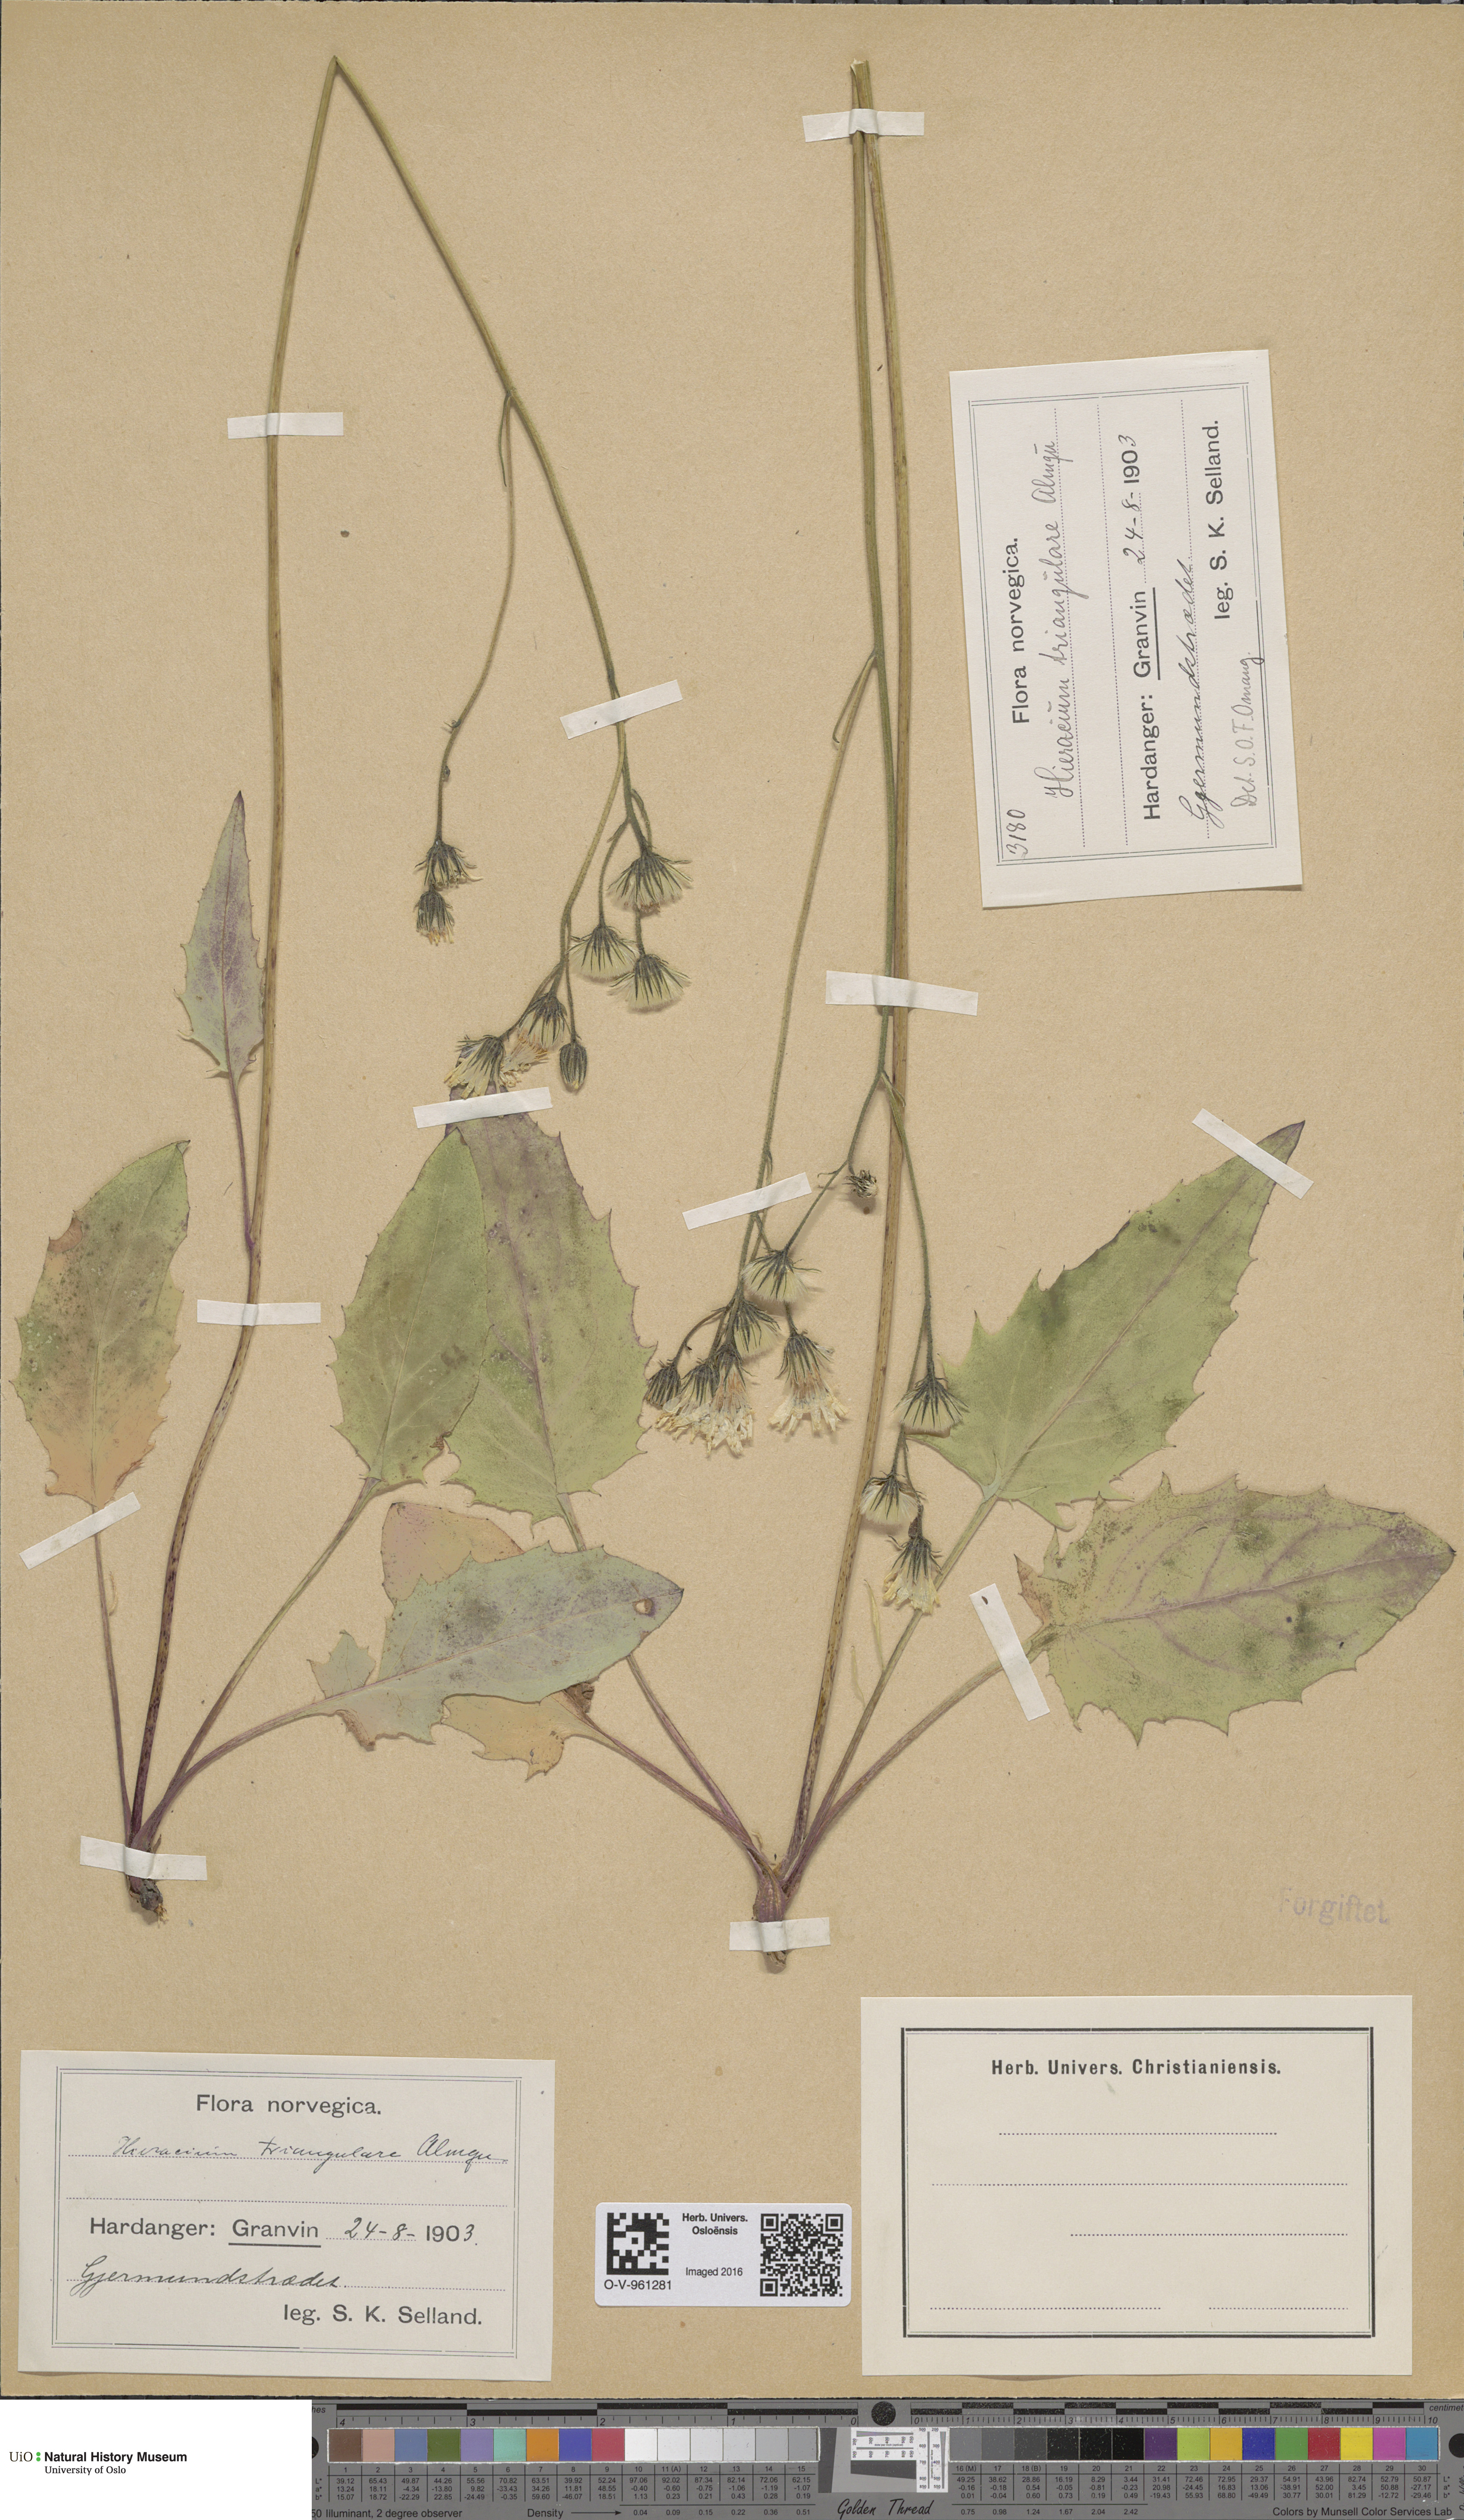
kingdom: Plantae
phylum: Tracheophyta
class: Magnoliopsida
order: Asterales
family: Asteraceae
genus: Hieracium
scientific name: Hieracium triangulare
